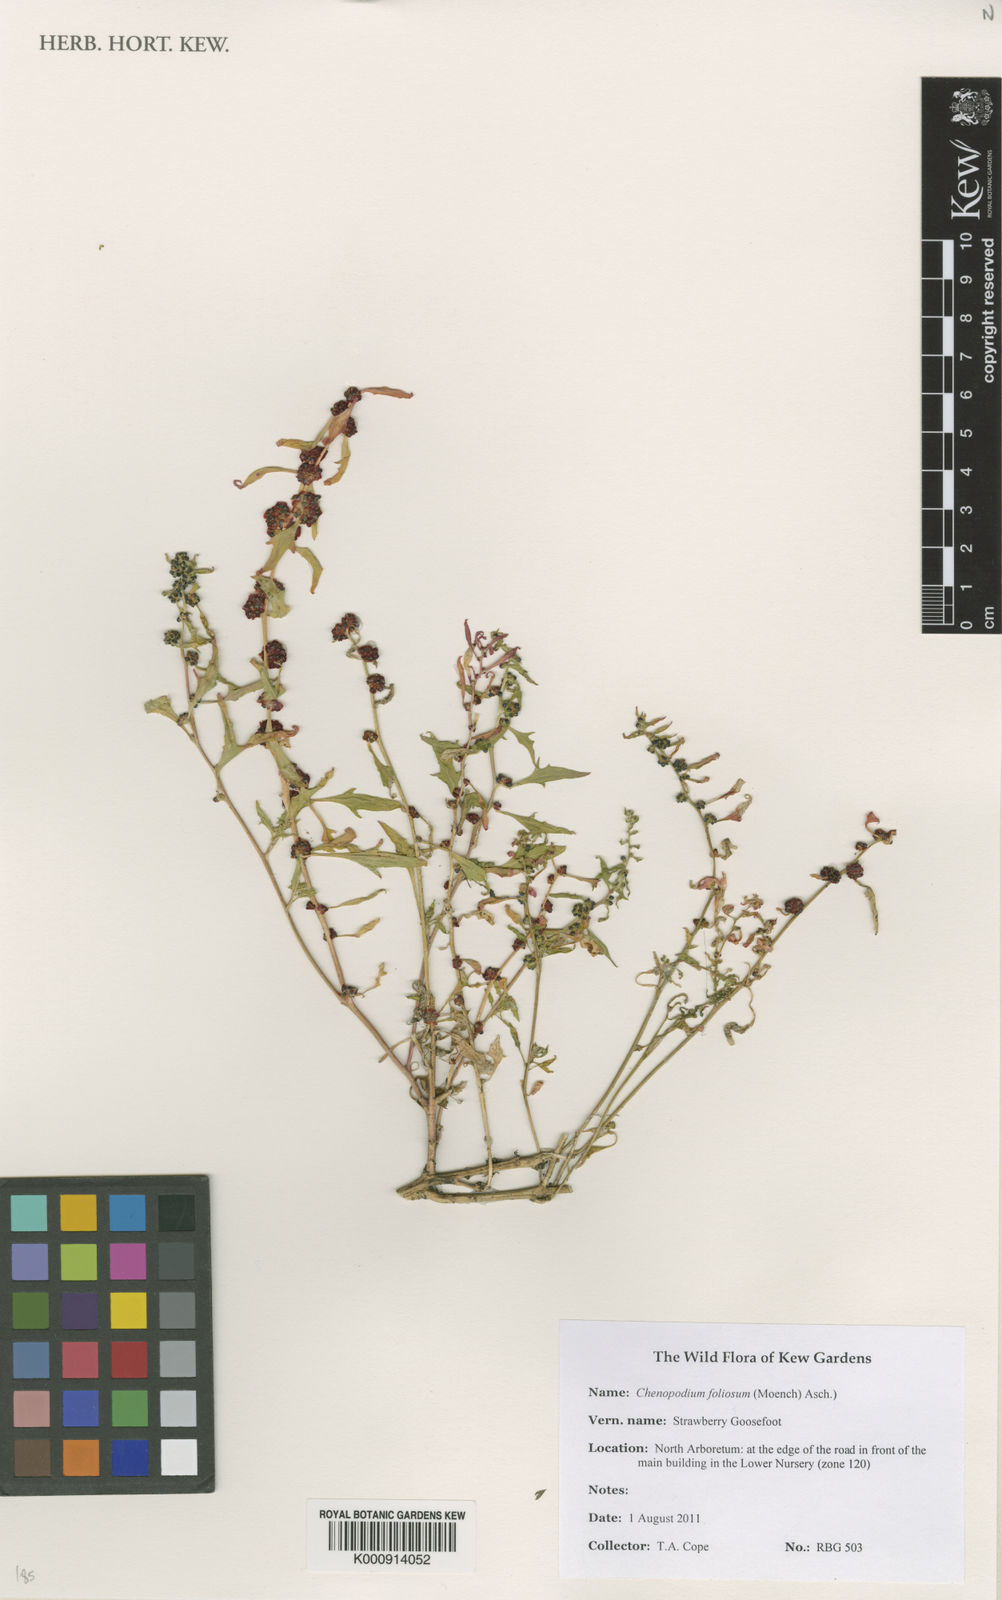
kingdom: Plantae
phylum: Tracheophyta
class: Magnoliopsida
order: Caryophyllales
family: Amaranthaceae
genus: Blitum
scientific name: Blitum virgatum
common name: Strawberry goosefoot
